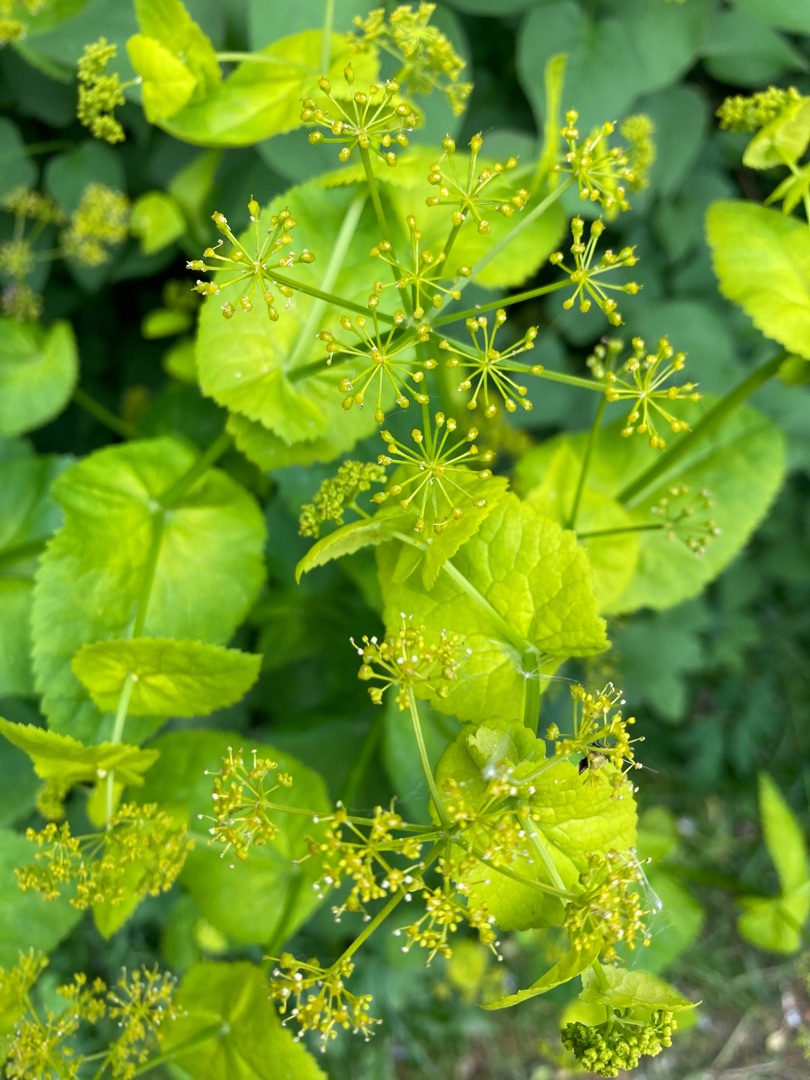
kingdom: Plantae
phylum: Tracheophyta
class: Magnoliopsida
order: Apiales
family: Apiaceae
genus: Smyrnium
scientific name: Smyrnium perfoliatum
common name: Lundgylden
